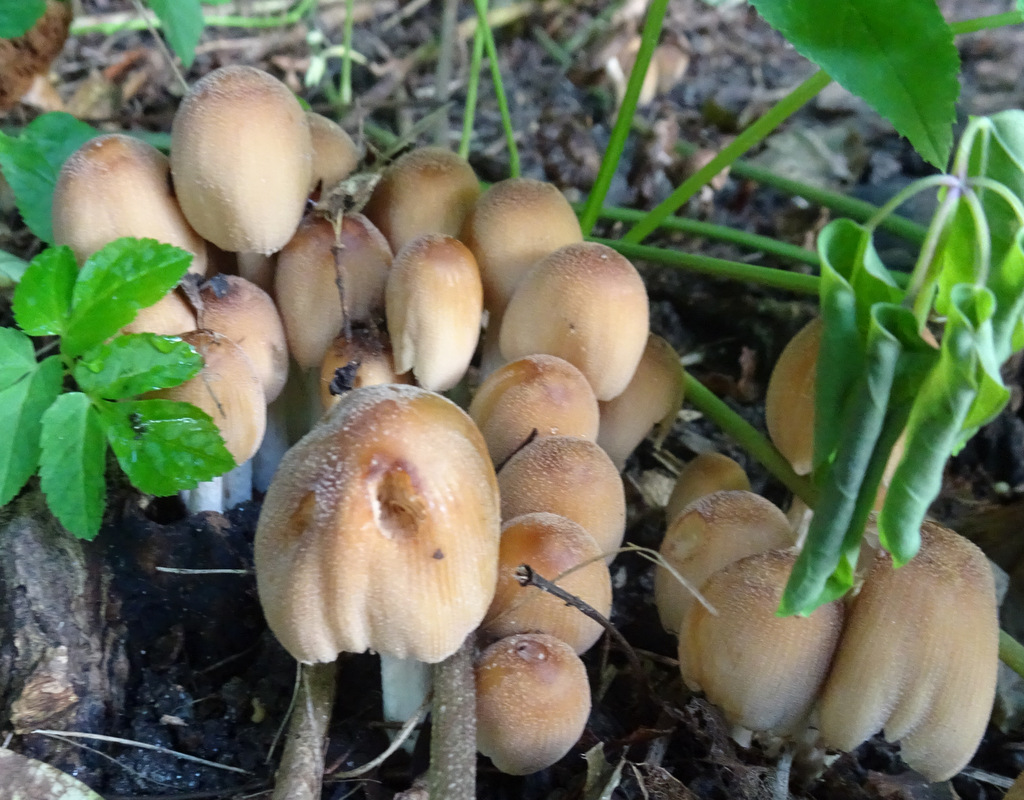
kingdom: Fungi
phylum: Basidiomycota
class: Agaricomycetes
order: Agaricales
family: Psathyrellaceae
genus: Coprinellus
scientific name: Coprinellus micaceus
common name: glimmer-blækhat
